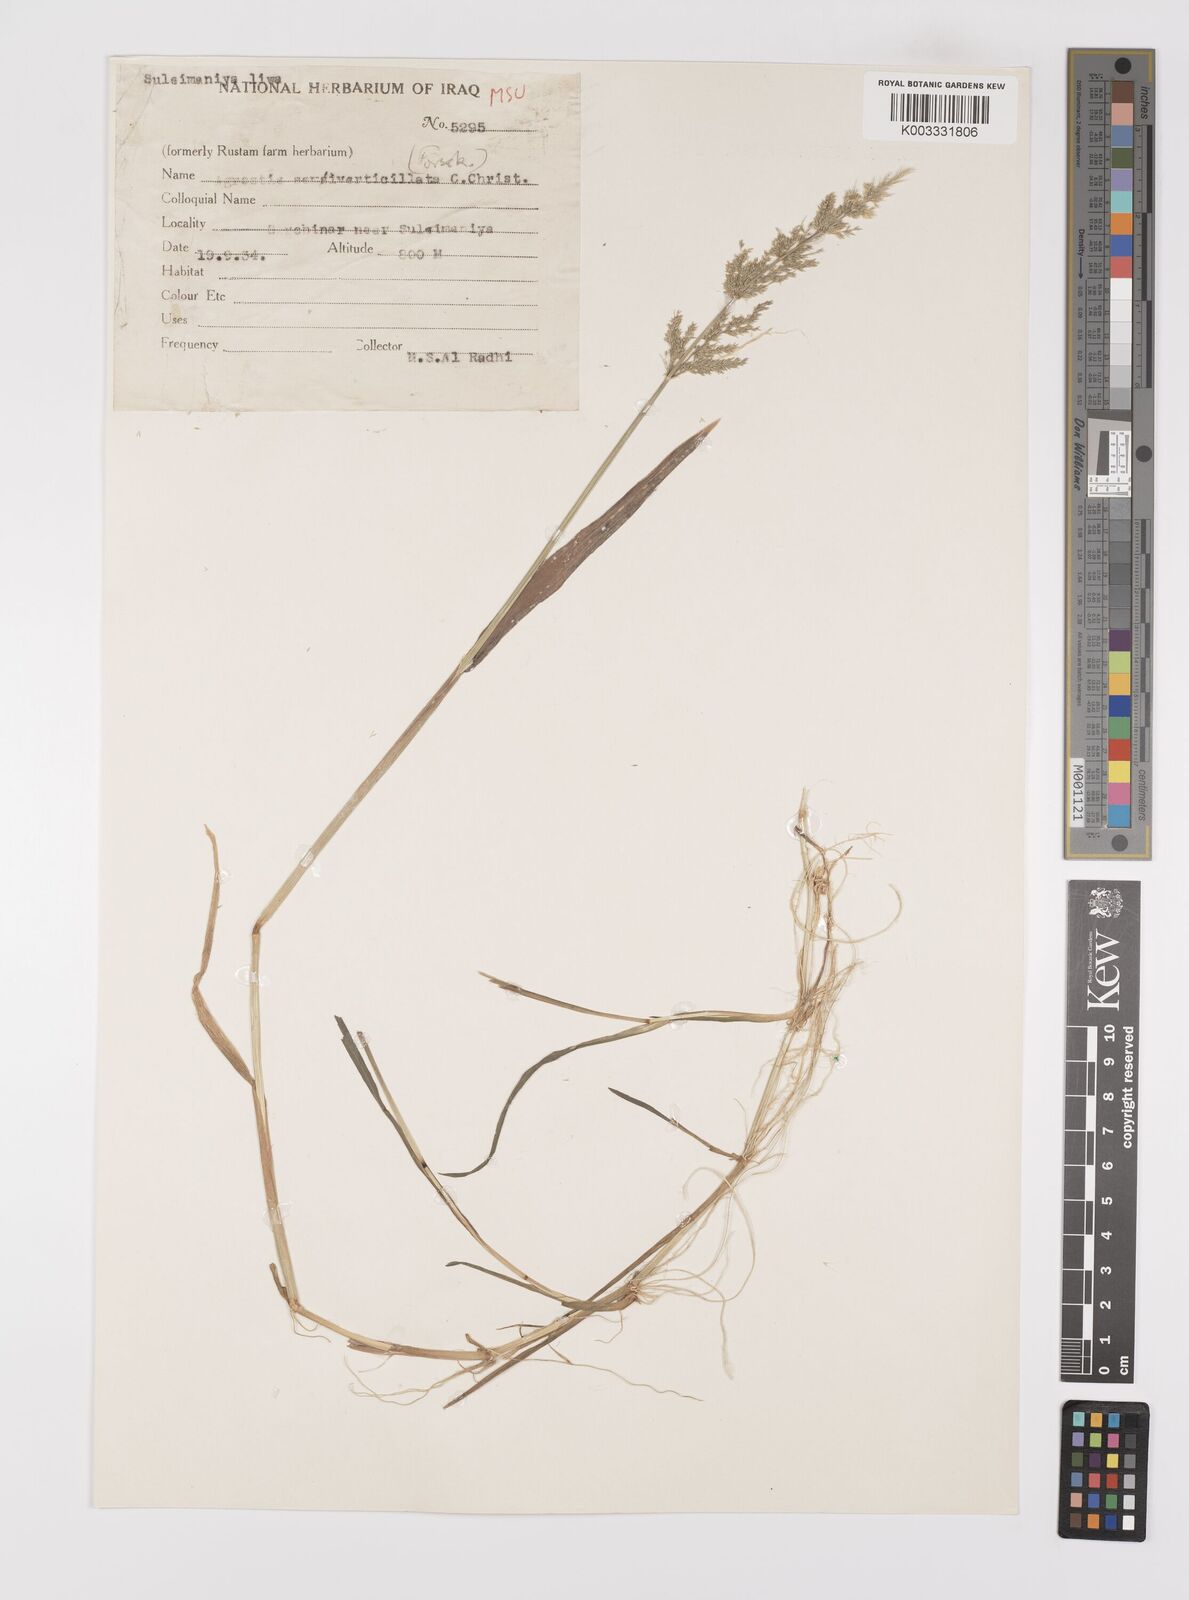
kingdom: Plantae
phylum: Tracheophyta
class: Liliopsida
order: Poales
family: Poaceae
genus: Polypogon
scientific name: Polypogon viridis
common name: Water bent
